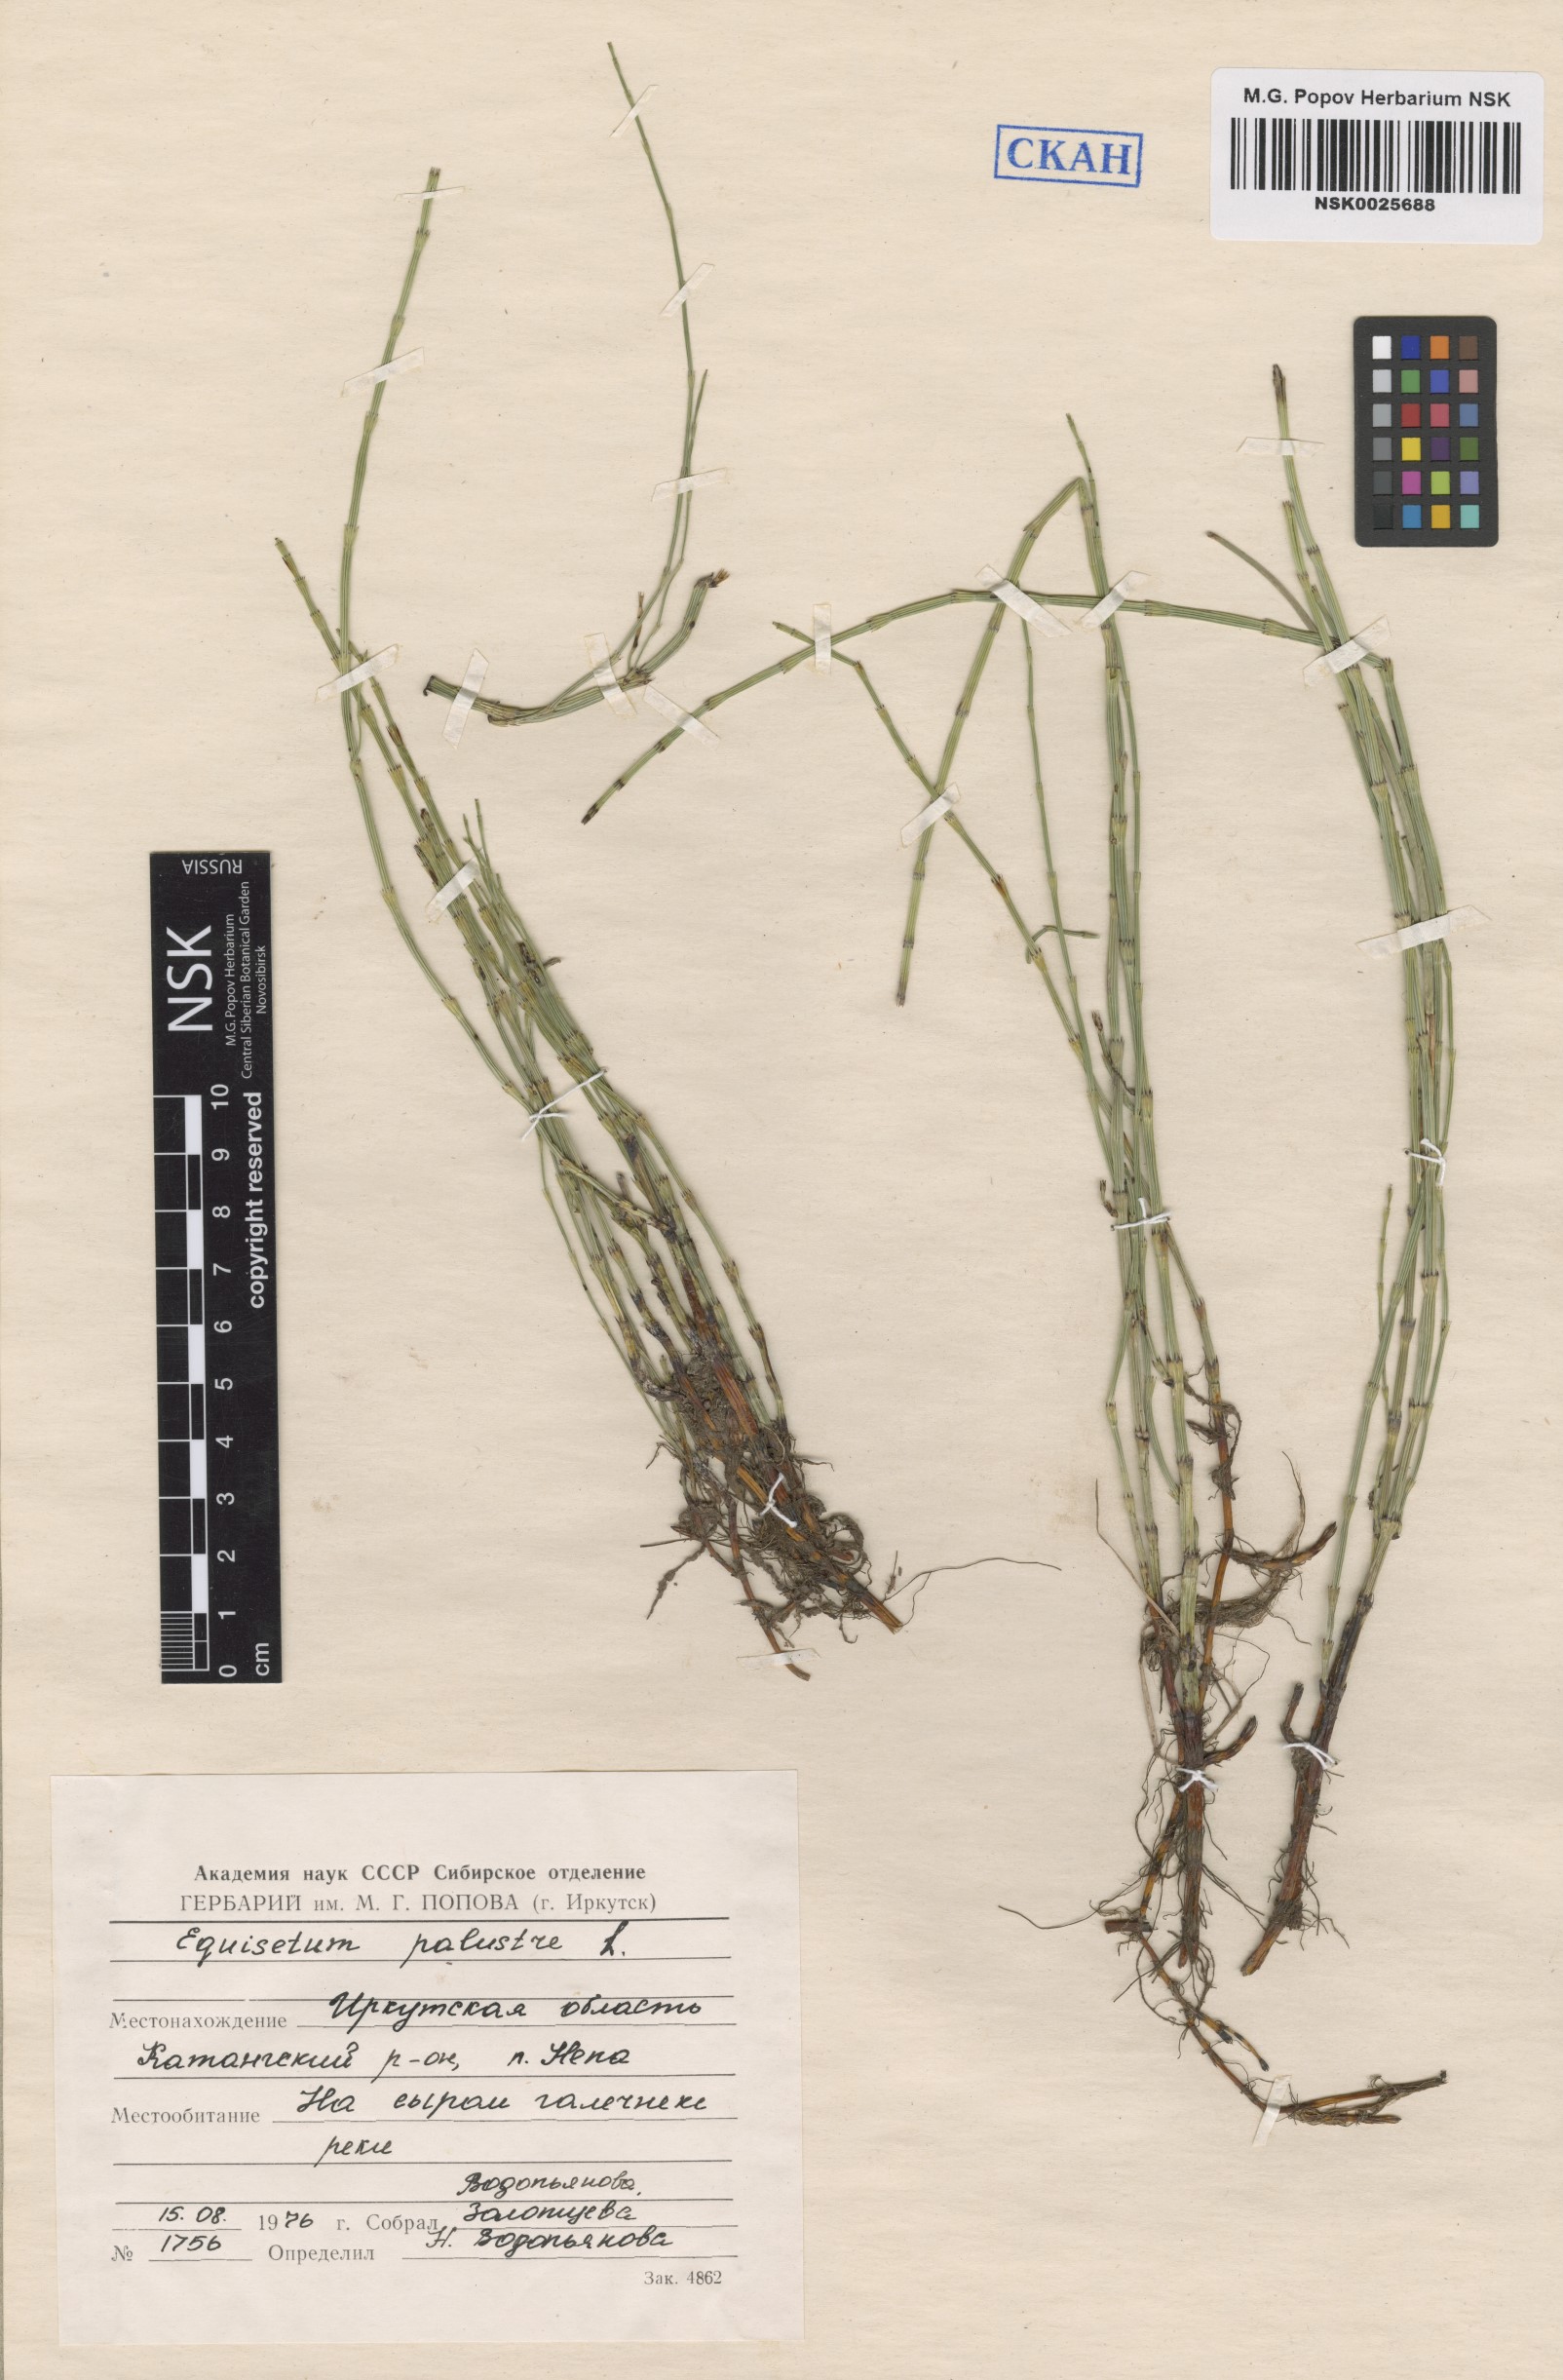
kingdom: Plantae
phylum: Tracheophyta
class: Polypodiopsida
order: Equisetales
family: Equisetaceae
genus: Equisetum
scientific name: Equisetum palustre
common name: Marsh horsetail
